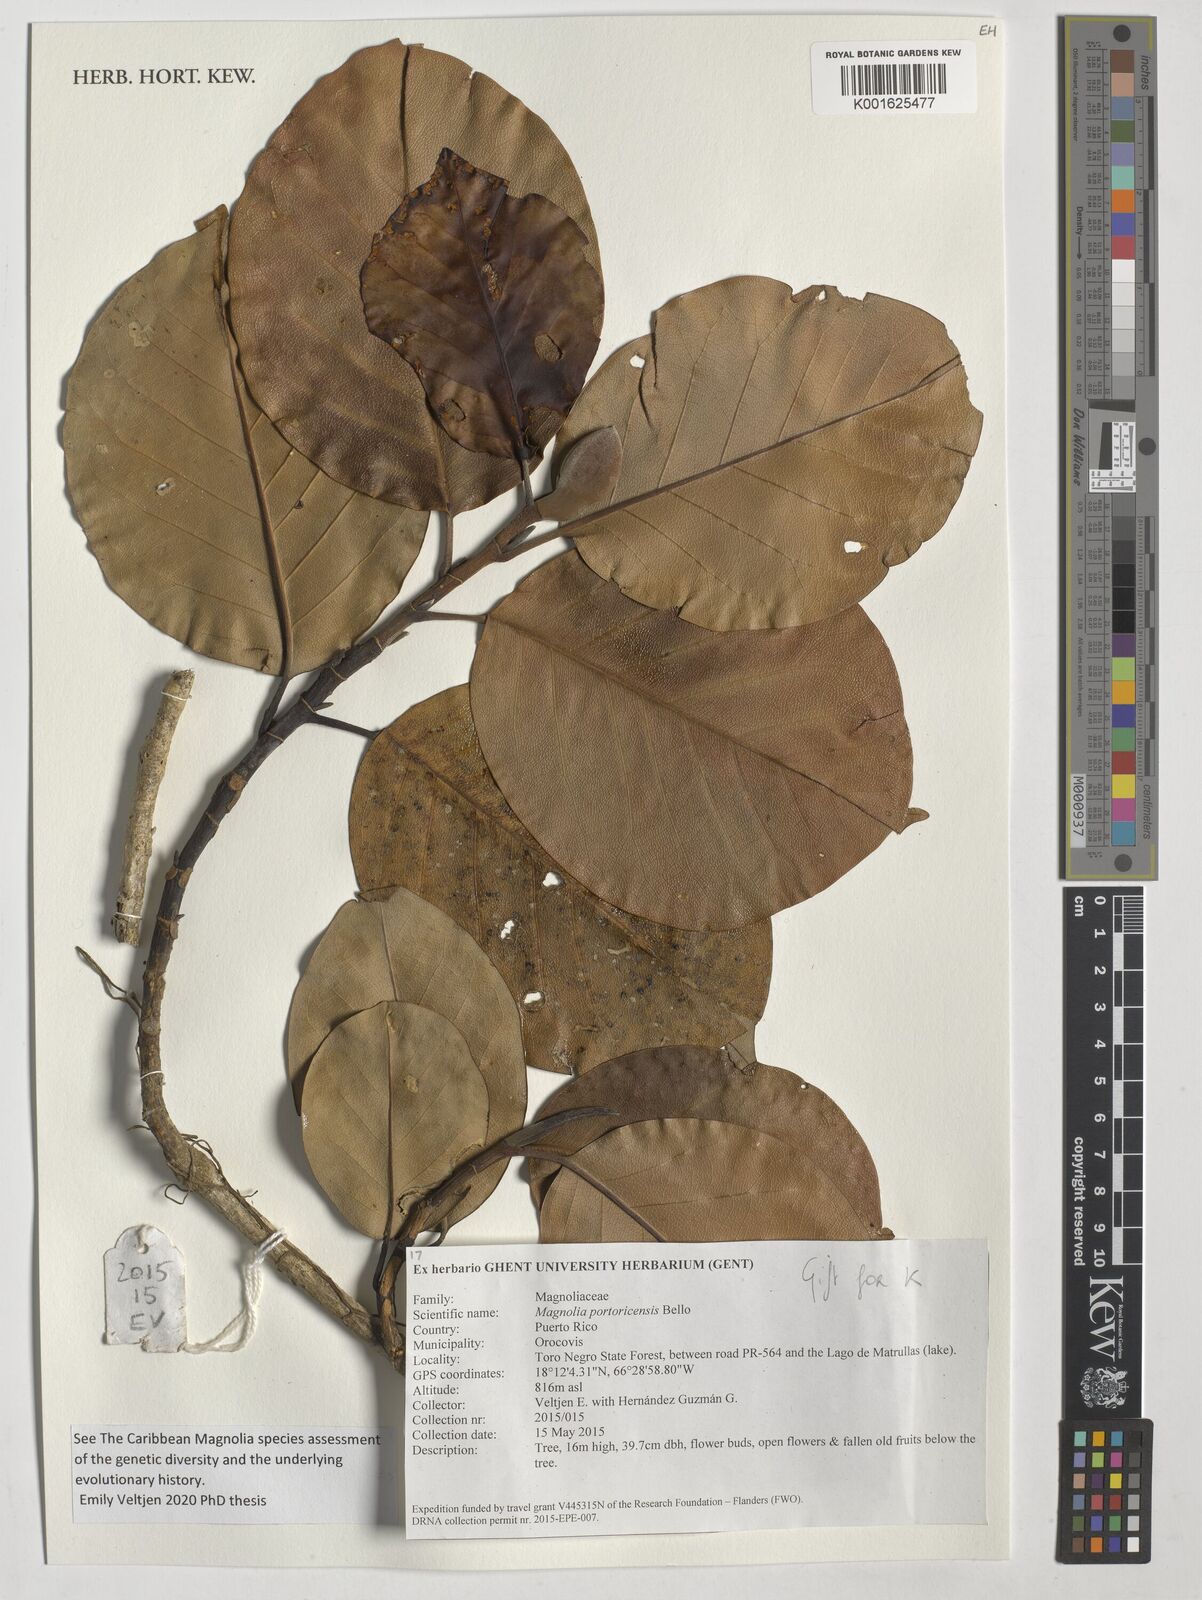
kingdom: Plantae
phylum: Tracheophyta
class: Magnoliopsida
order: Magnoliales
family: Magnoliaceae
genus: Magnolia
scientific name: Magnolia portoricensis
